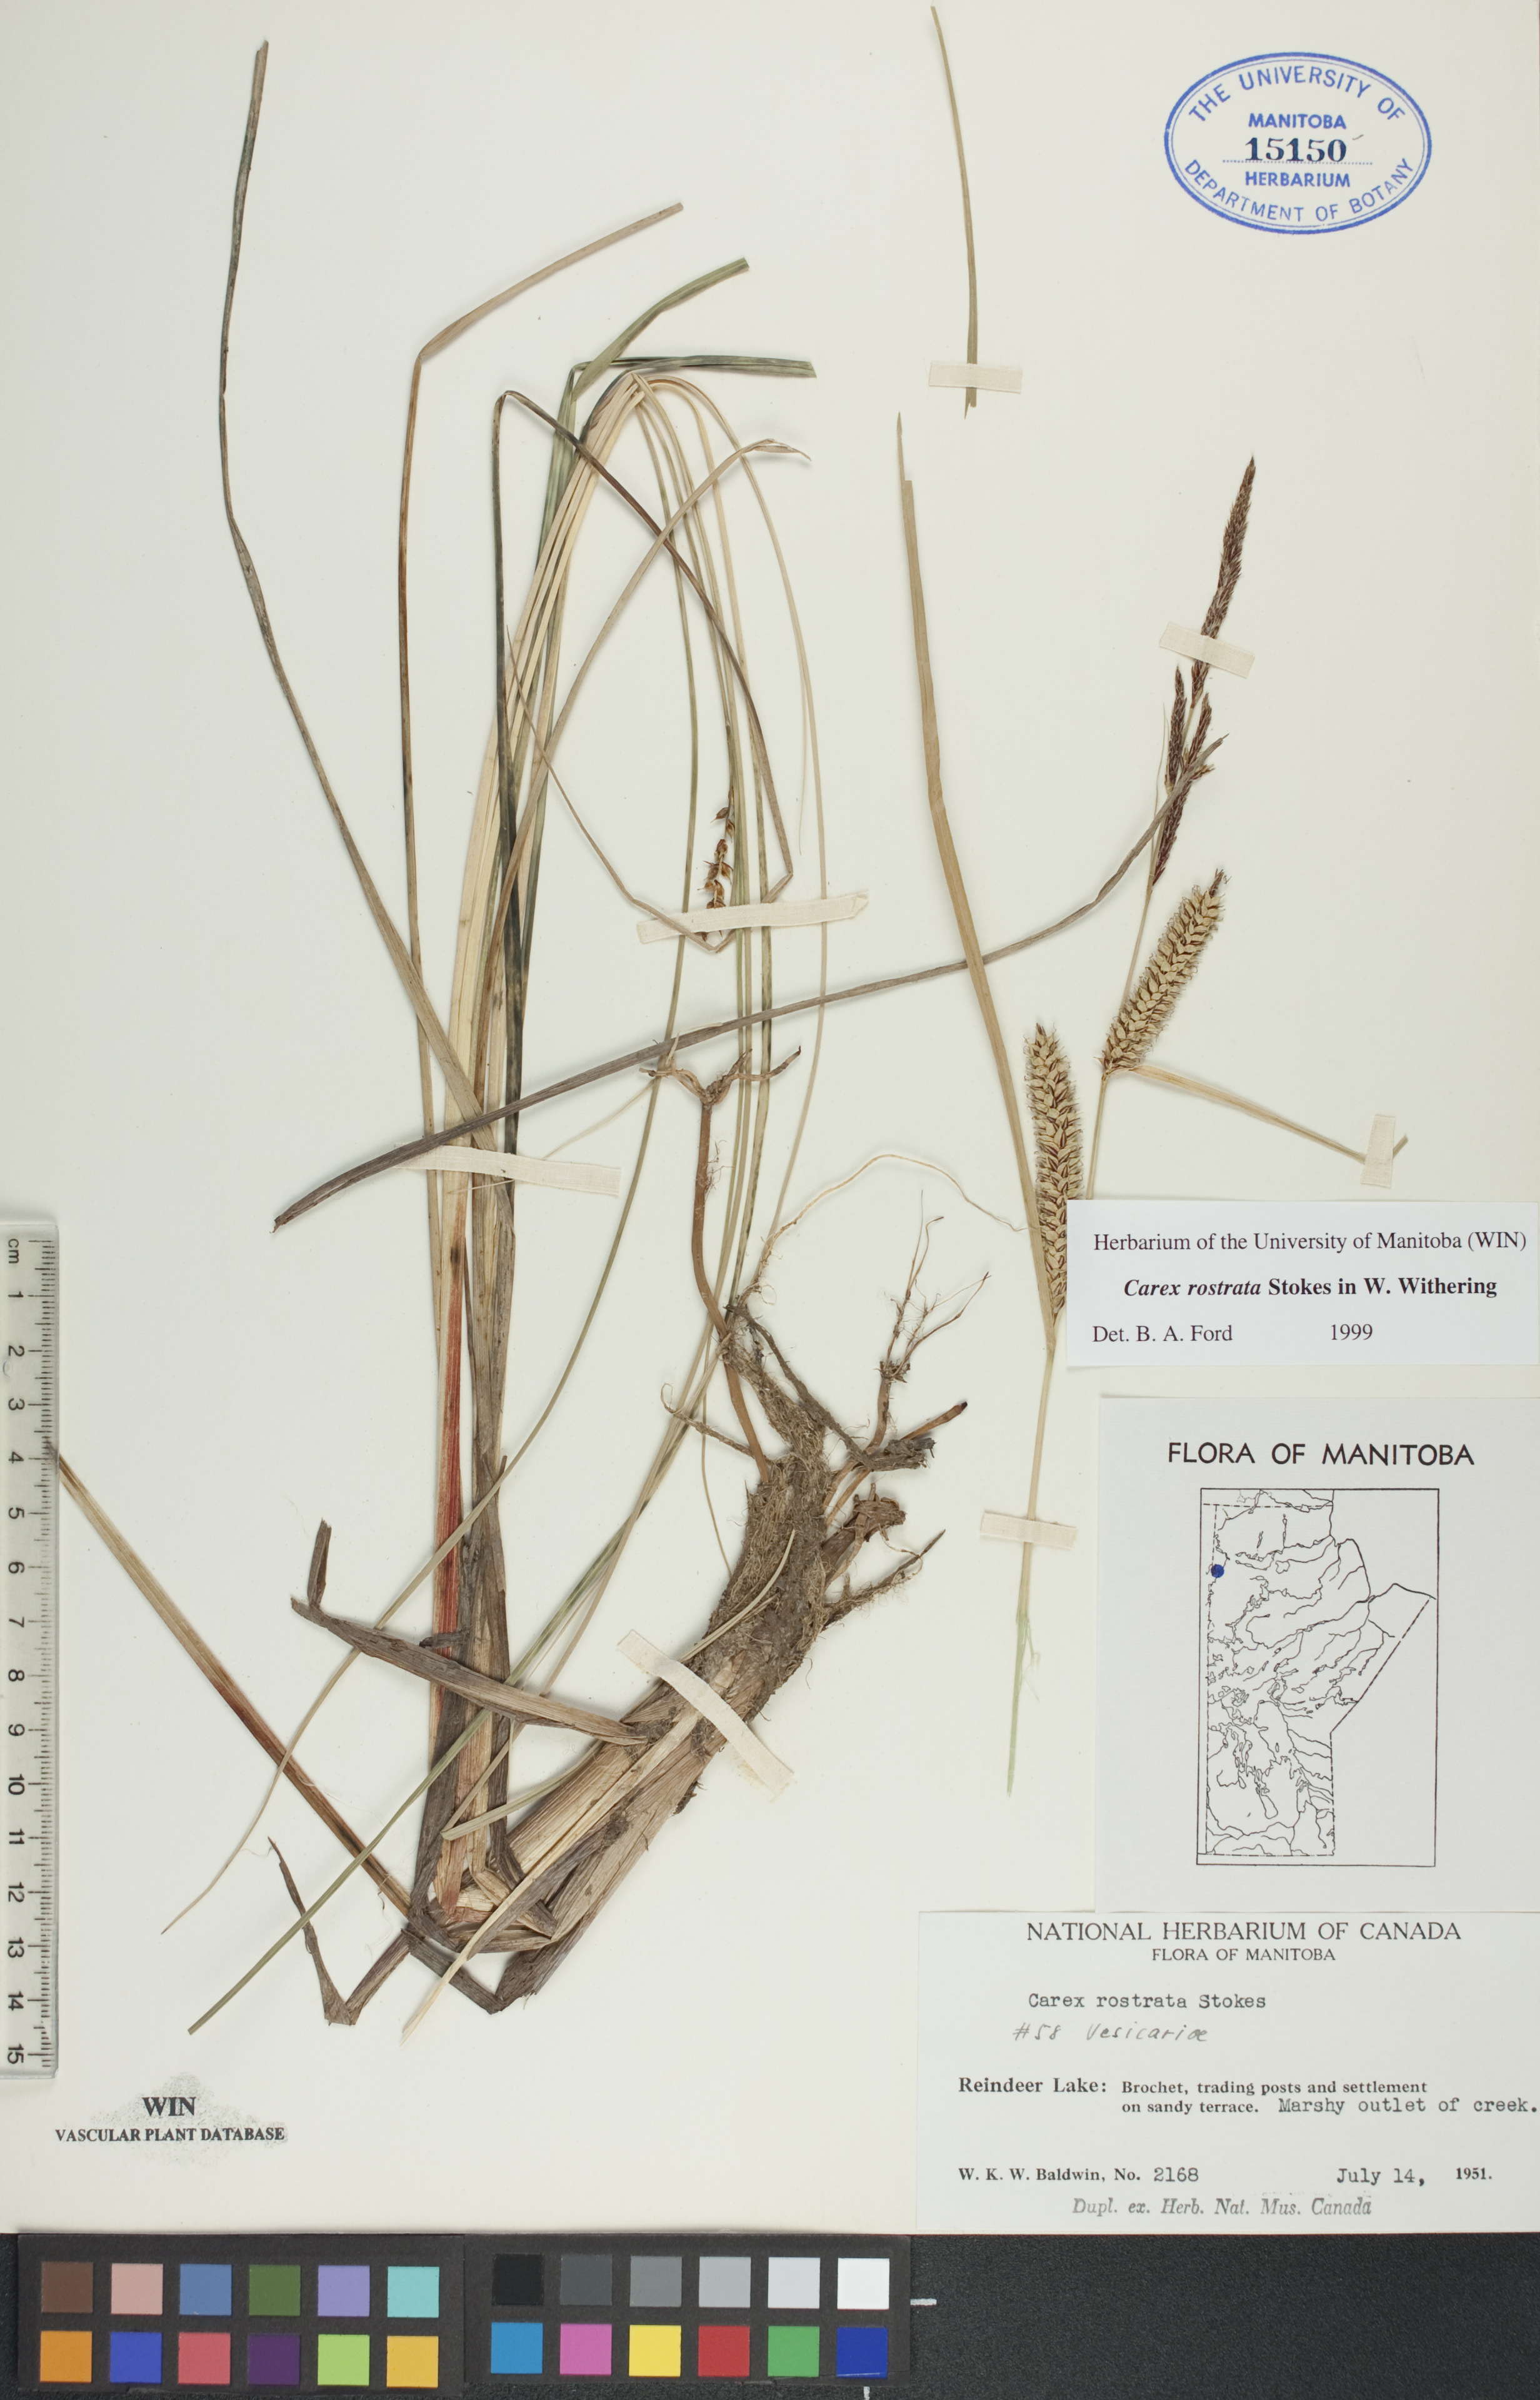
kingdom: Plantae
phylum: Tracheophyta
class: Liliopsida
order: Poales
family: Cyperaceae
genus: Carex
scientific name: Carex rostrata
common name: Bottle sedge
